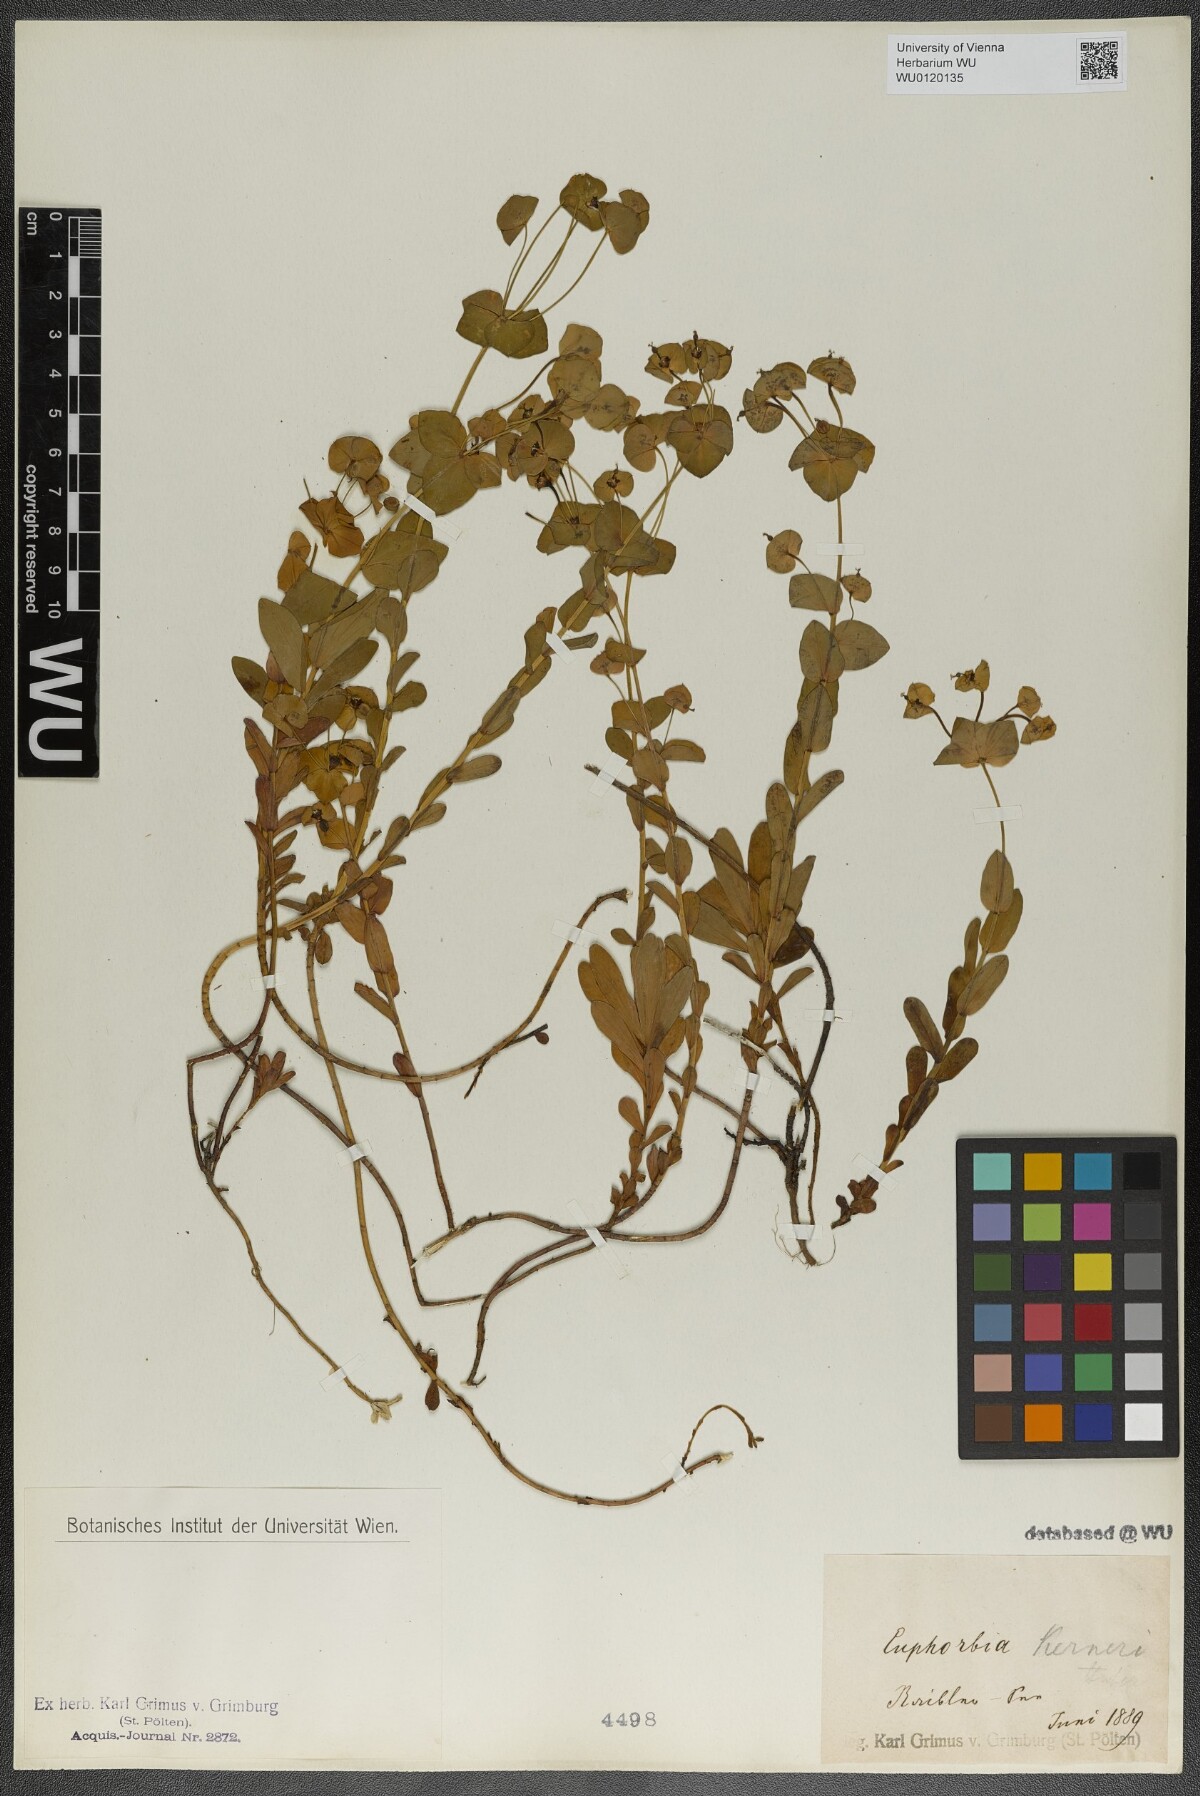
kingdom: Plantae
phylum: Tracheophyta
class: Magnoliopsida
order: Malpighiales
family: Euphorbiaceae
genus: Euphorbia
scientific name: Euphorbia kerneri
